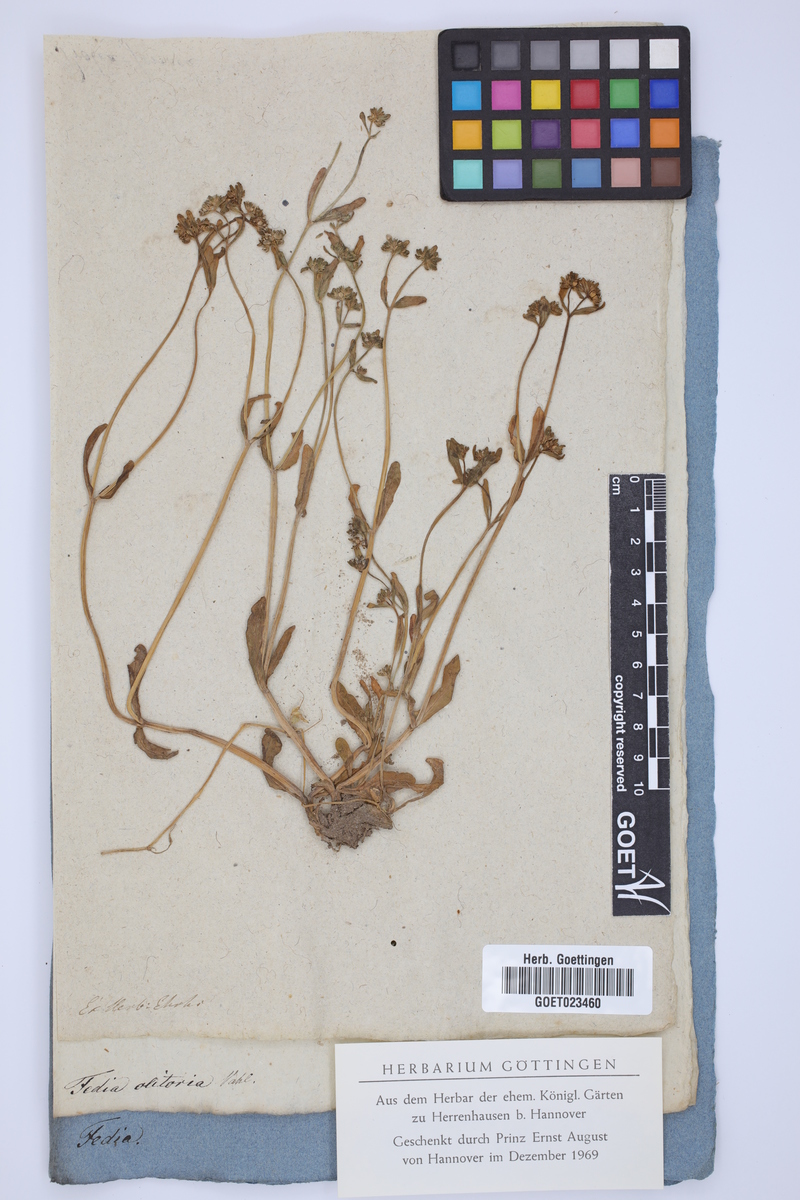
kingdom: Plantae
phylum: Tracheophyta
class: Magnoliopsida
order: Dipsacales
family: Caprifoliaceae
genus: Valerianella
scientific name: Valerianella locusta
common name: Common cornsalad
